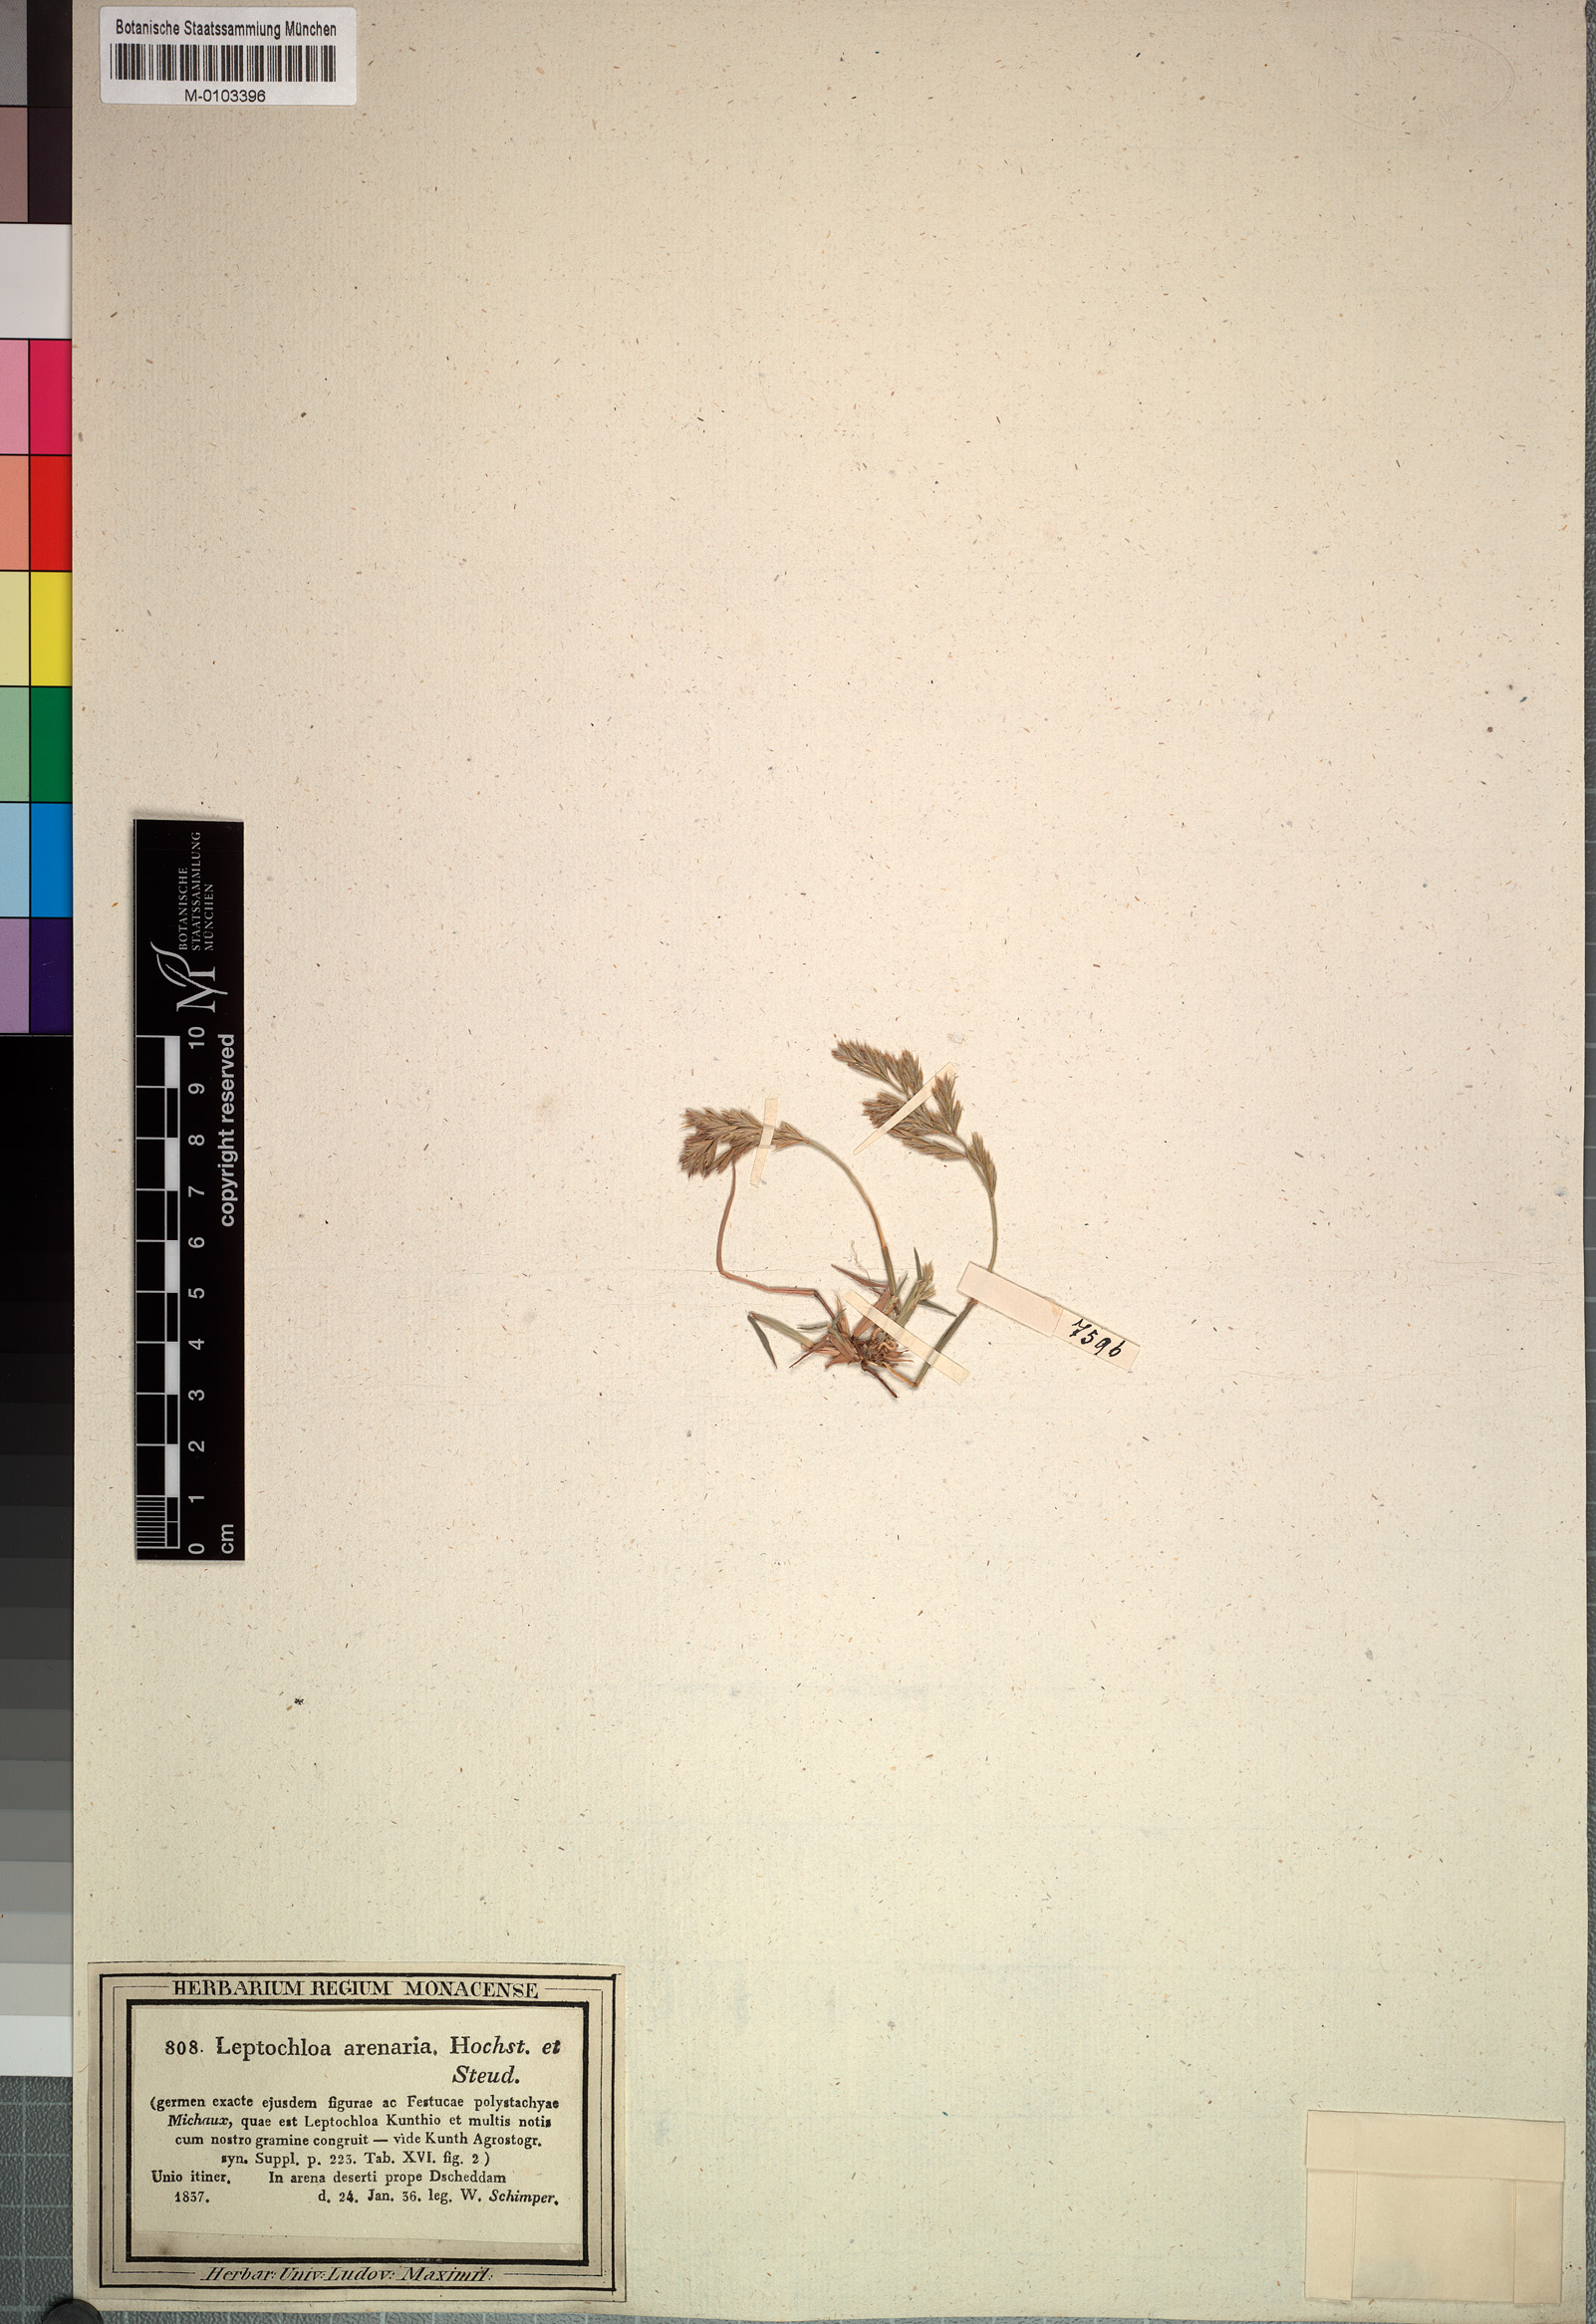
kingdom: Plantae
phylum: Tracheophyta
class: Liliopsida
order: Poales
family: Poaceae
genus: Trichoneura
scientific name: Trichoneura mollis
